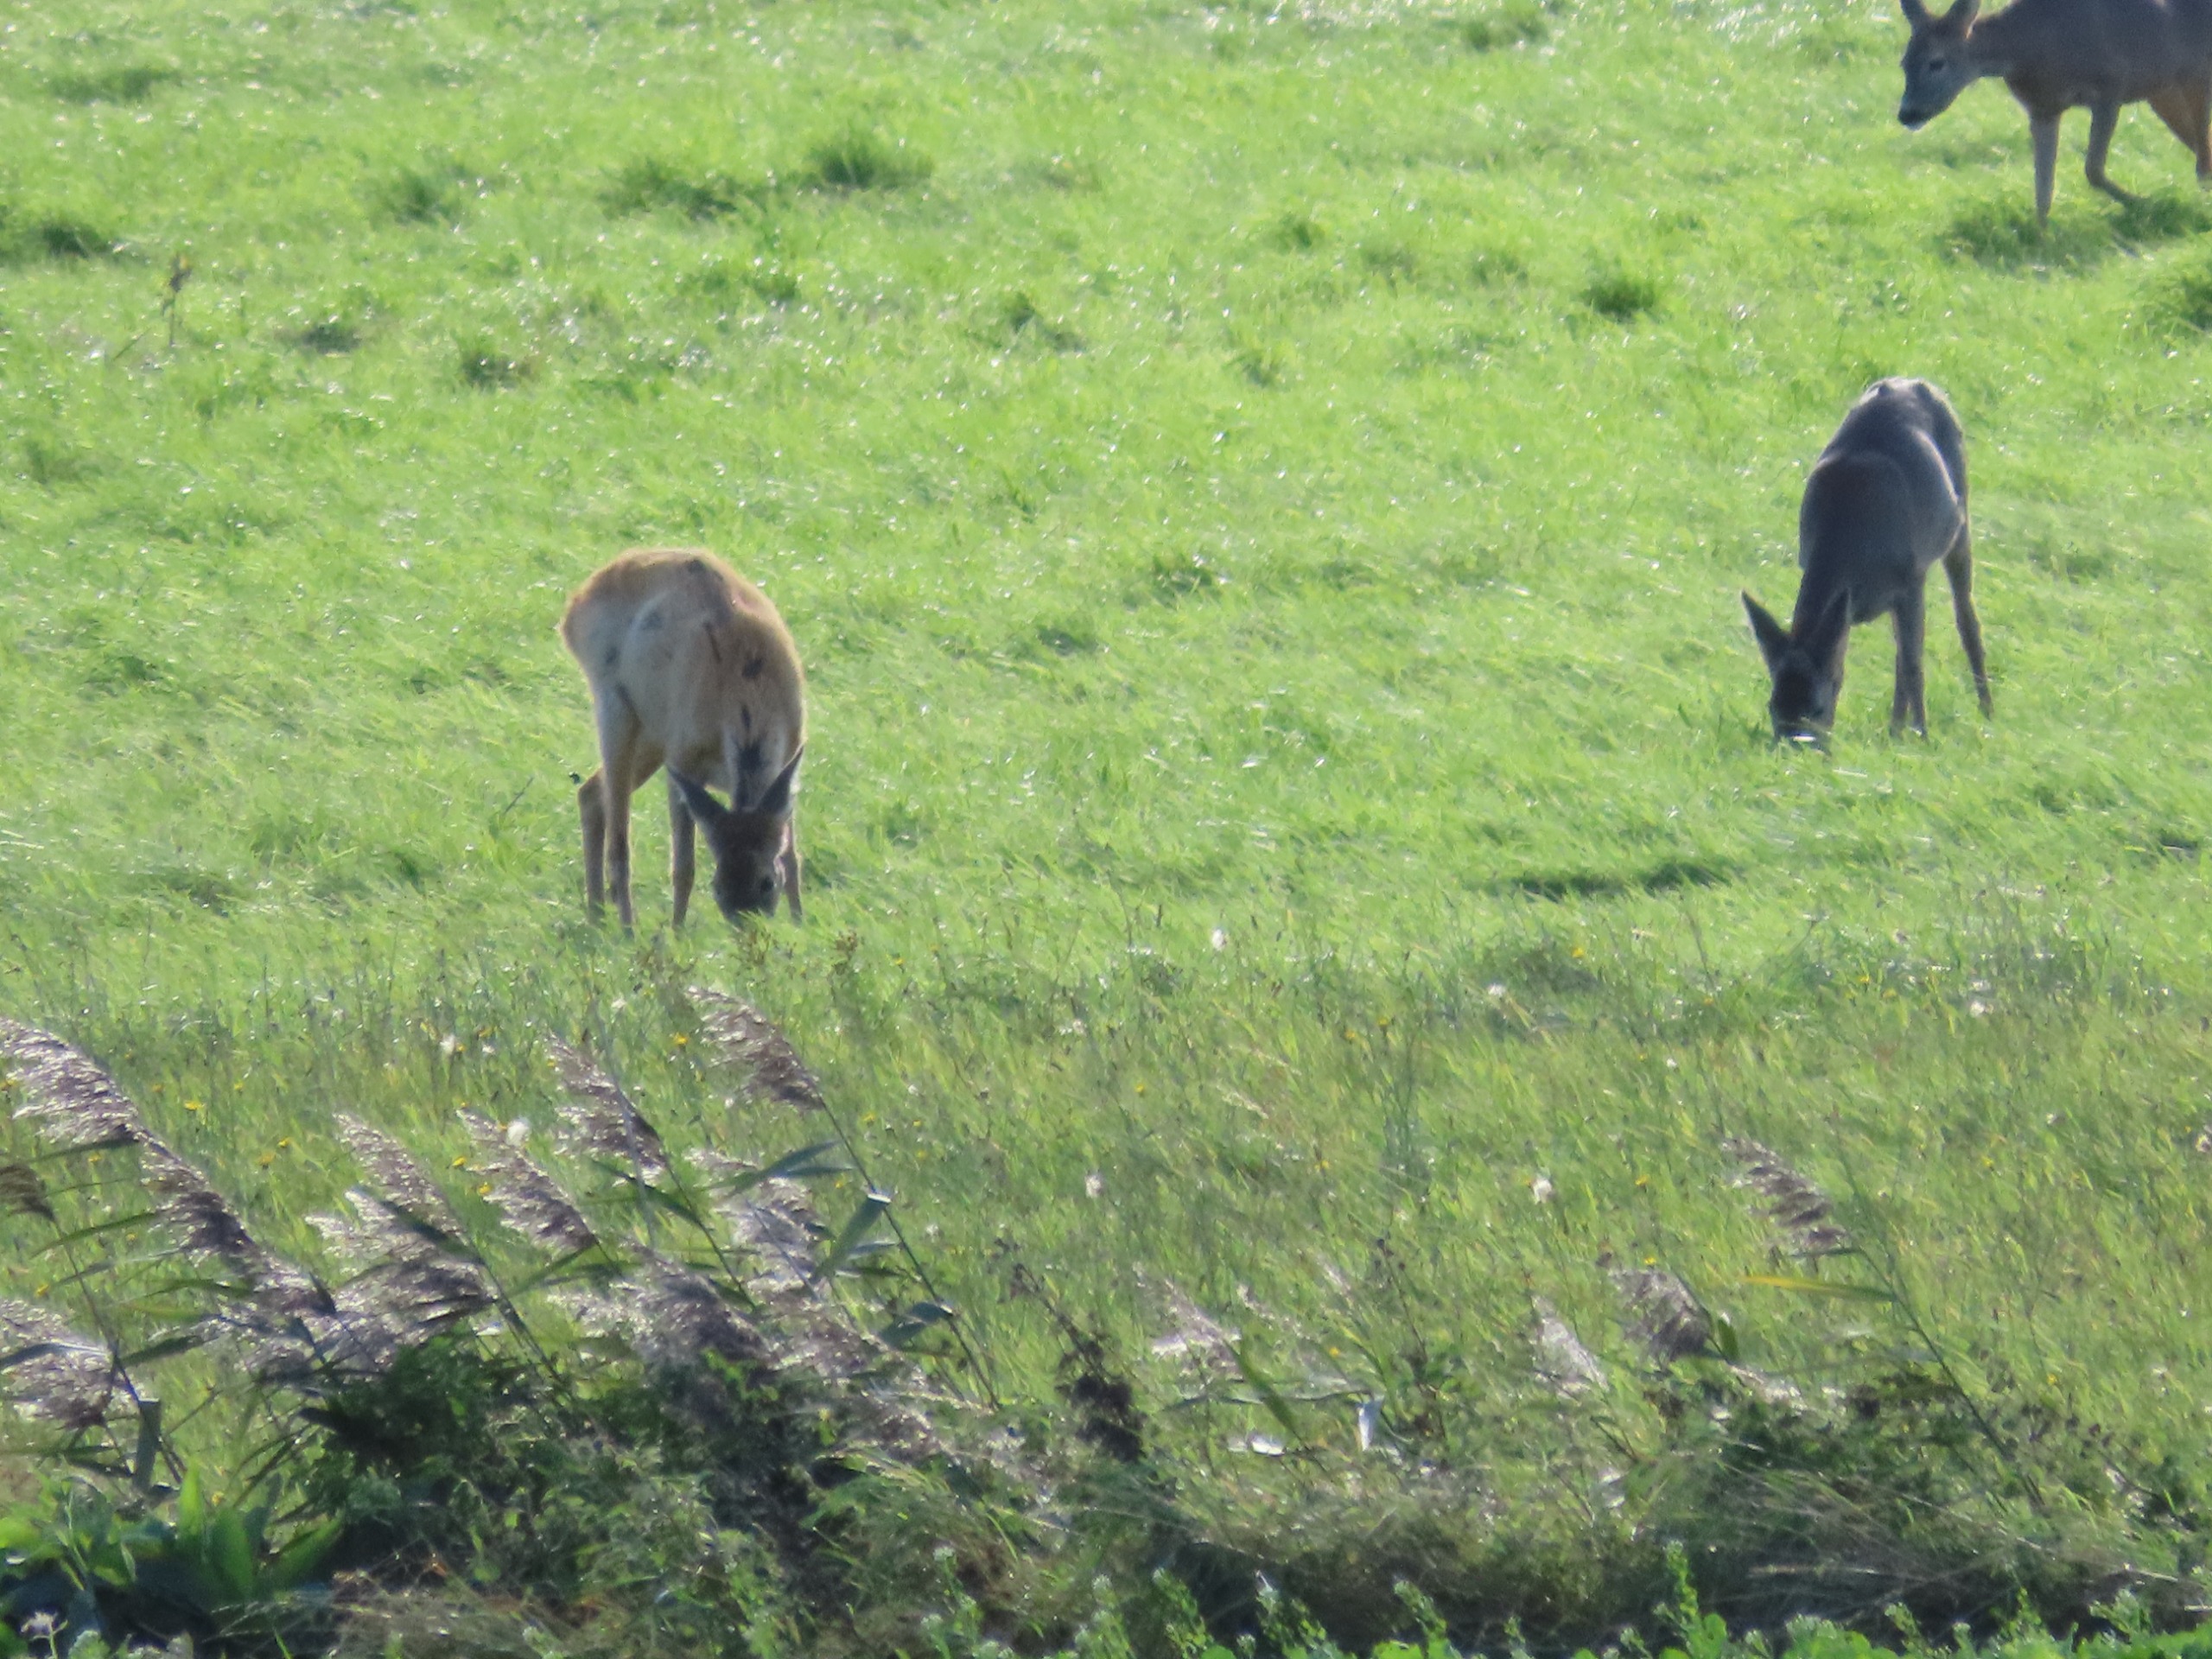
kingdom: Animalia
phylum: Chordata
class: Mammalia
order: Artiodactyla
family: Cervidae
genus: Capreolus
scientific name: Capreolus capreolus
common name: Rådyr
